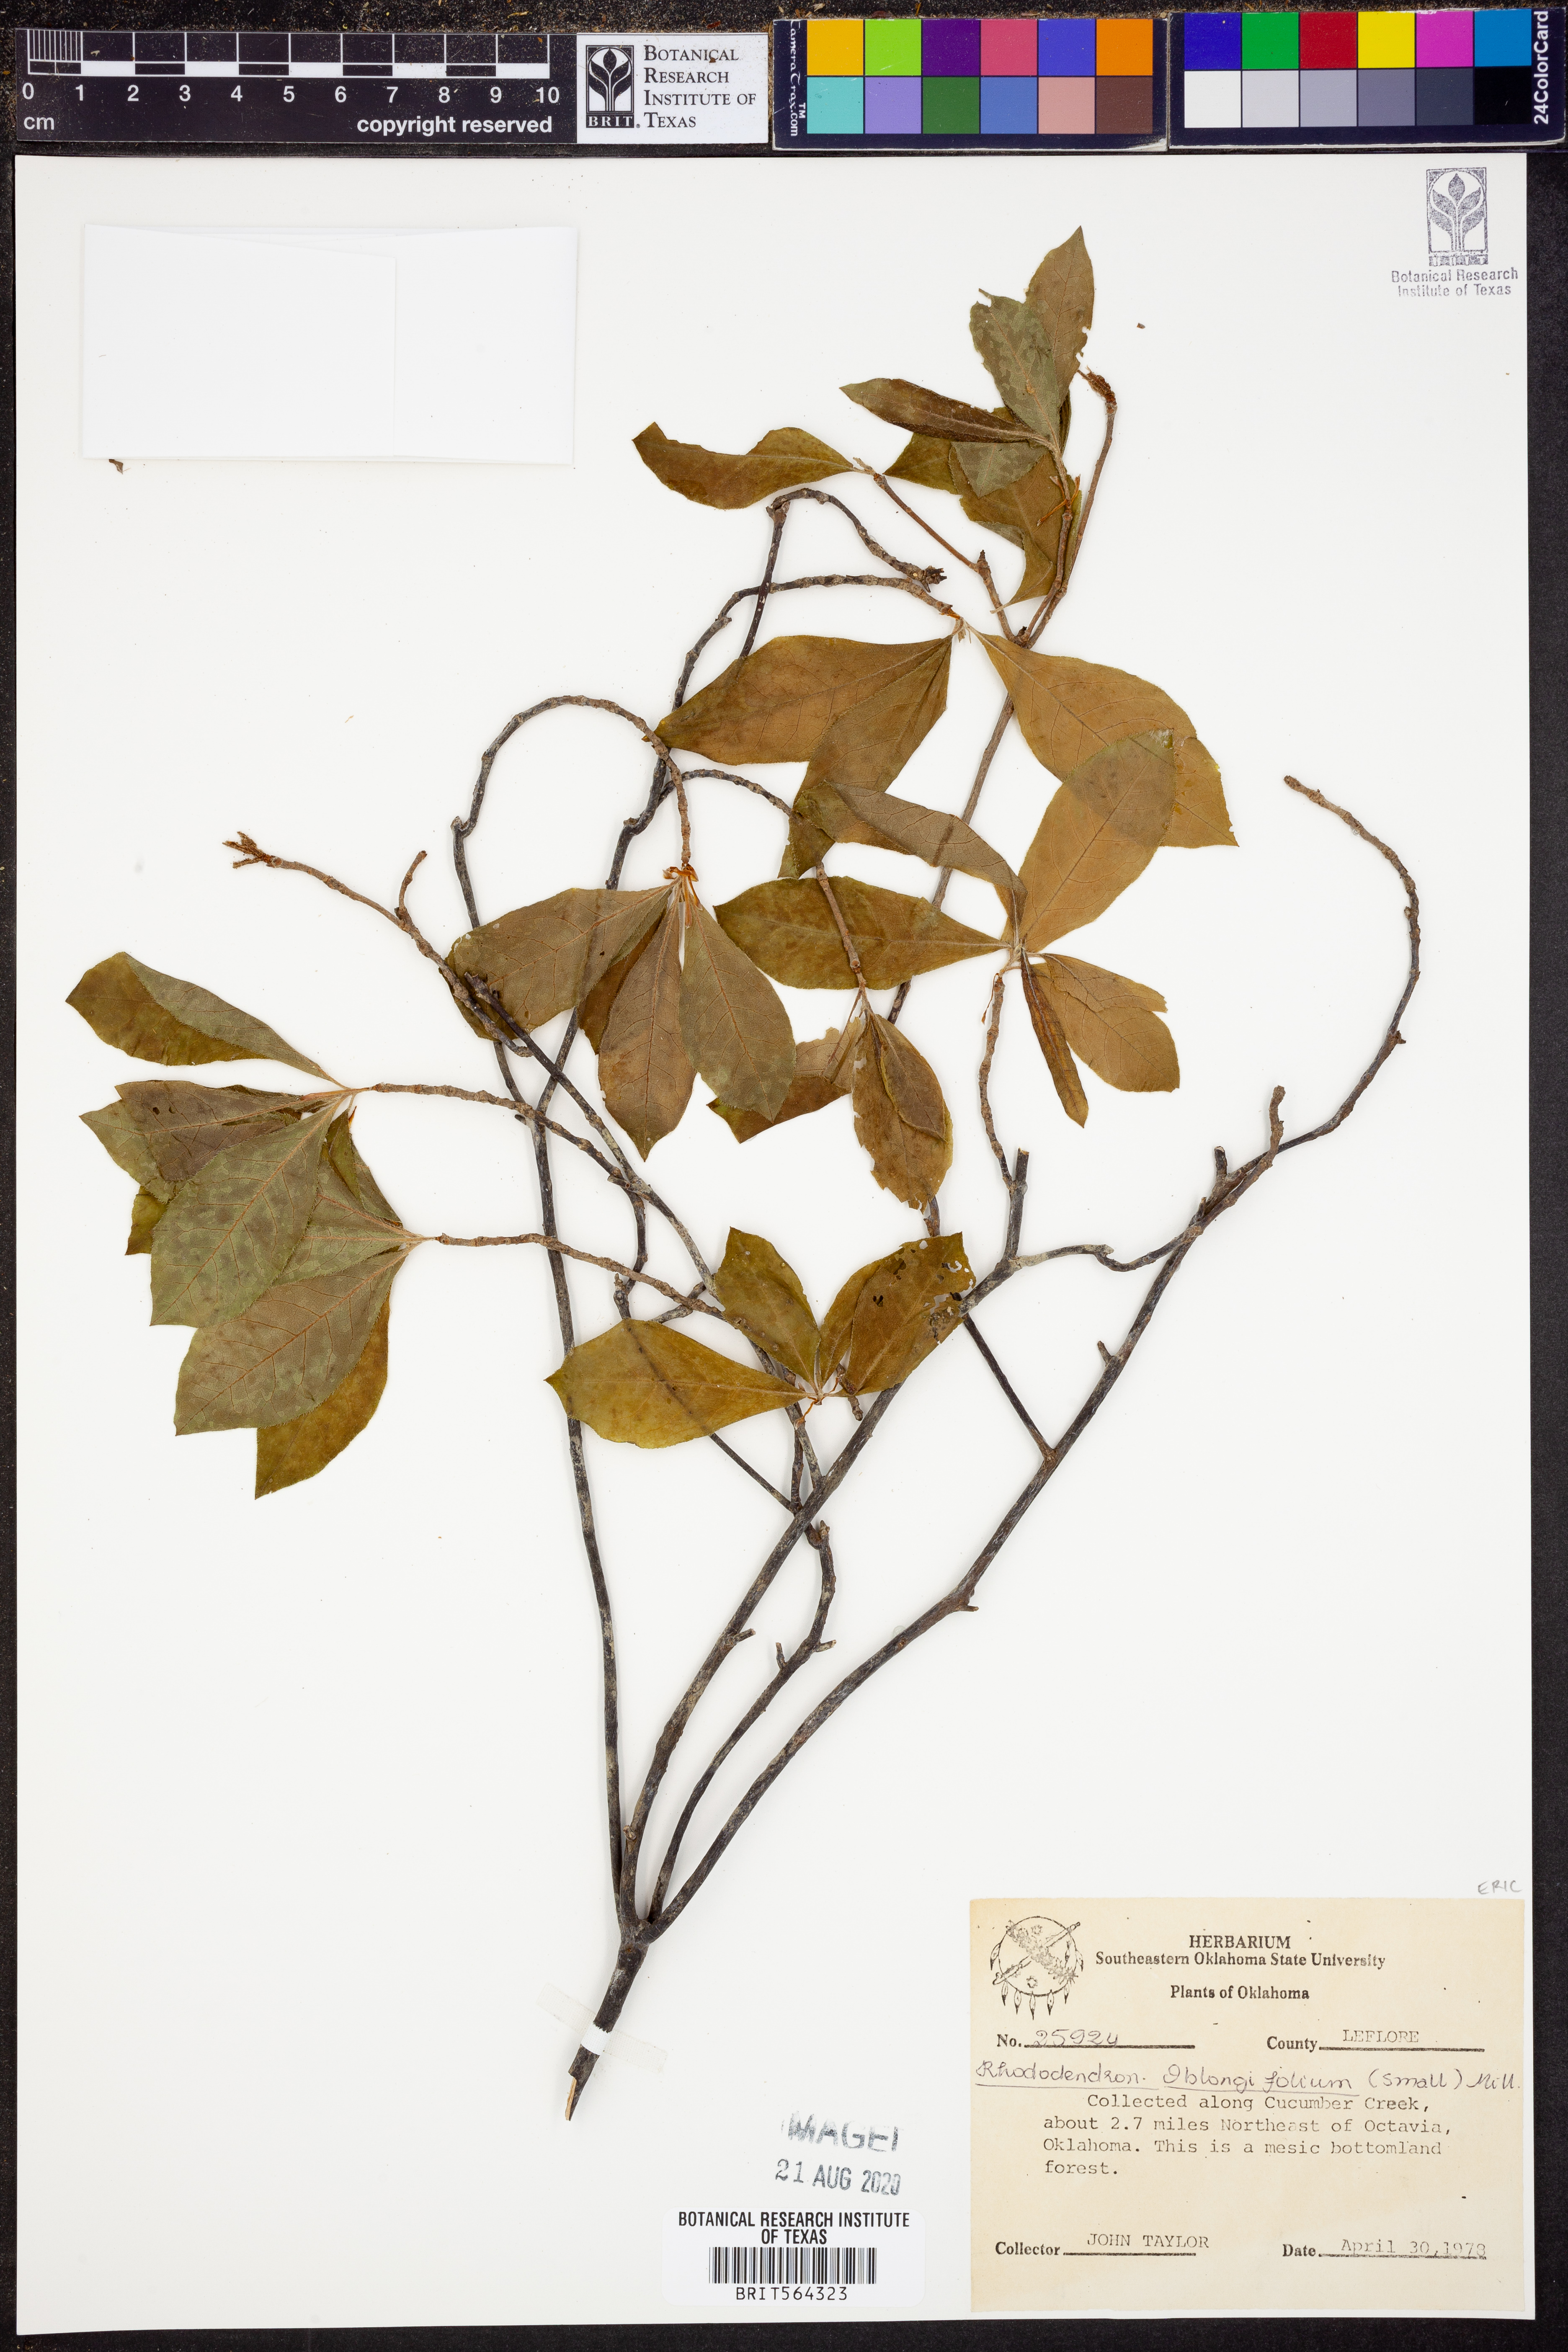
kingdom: Plantae
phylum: Tracheophyta
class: Magnoliopsida
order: Ericales
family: Ericaceae
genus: Rhododendron
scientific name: Rhododendron viscosum
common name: Clammy azalea
